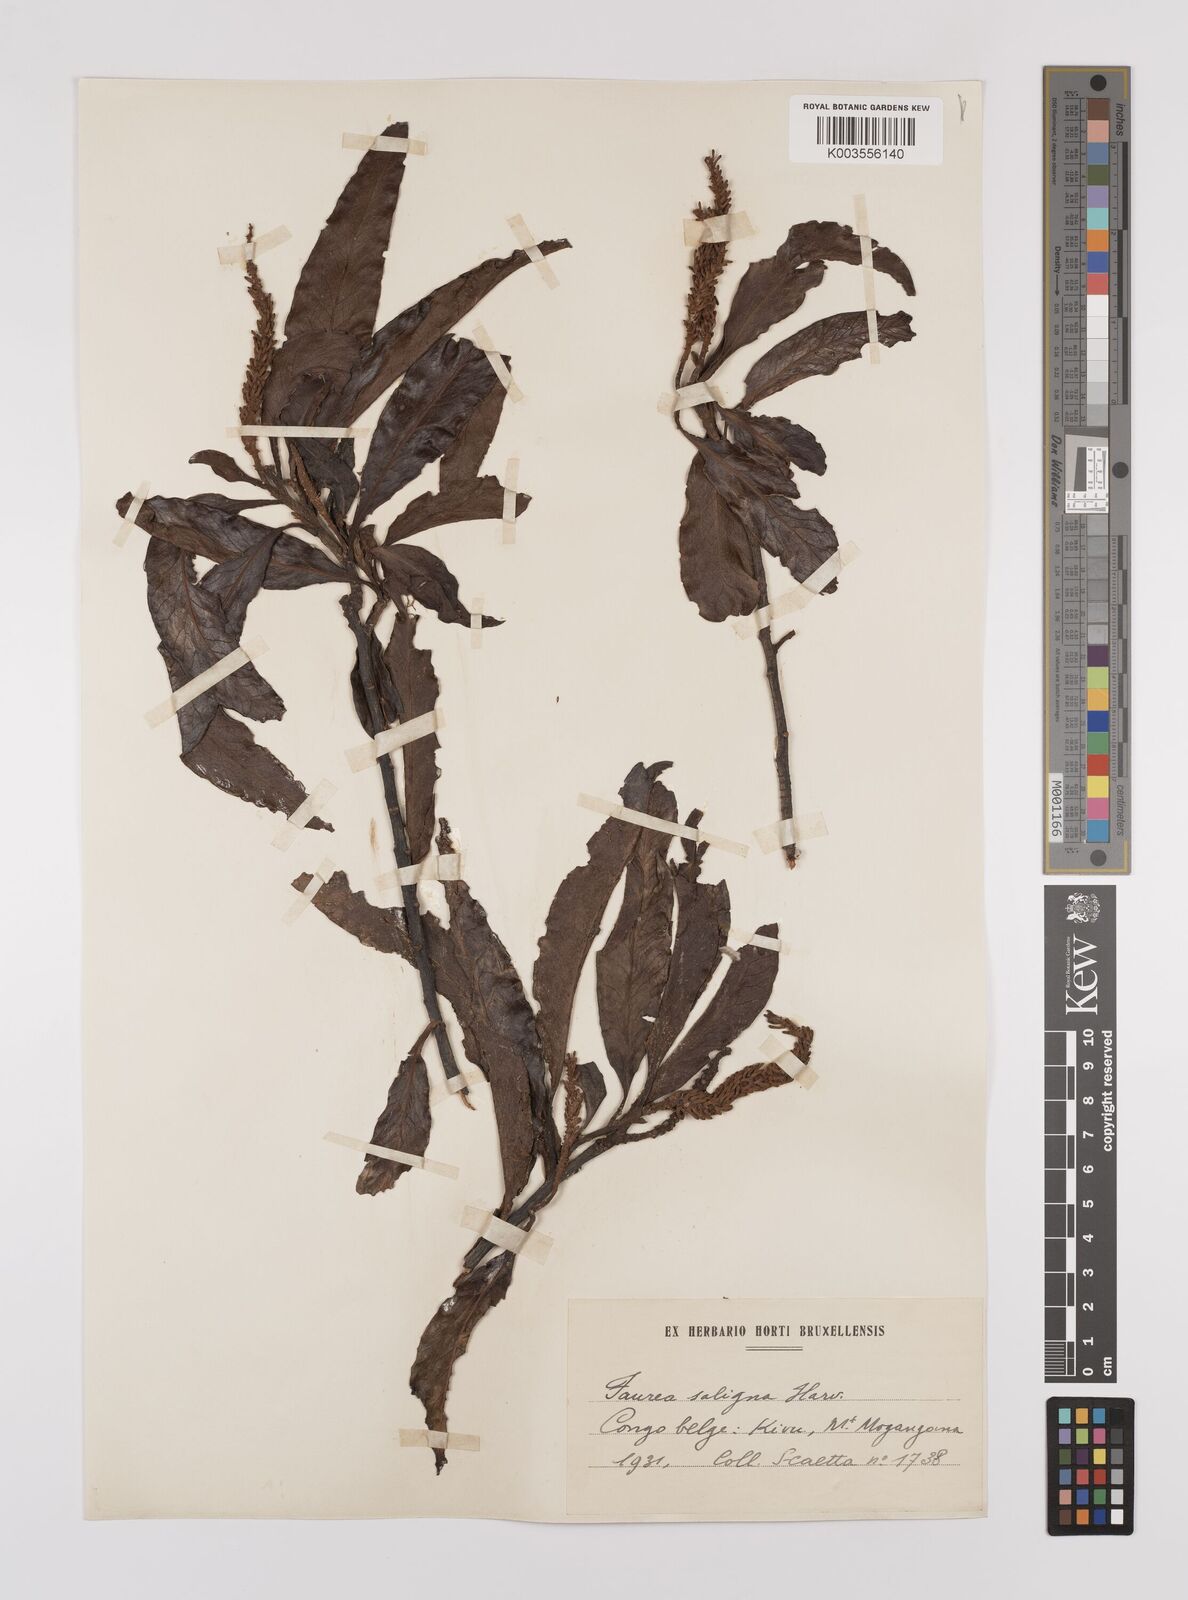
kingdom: Plantae
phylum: Tracheophyta
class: Magnoliopsida
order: Proteales
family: Proteaceae
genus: Faurea
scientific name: Faurea saligna
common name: African bean
